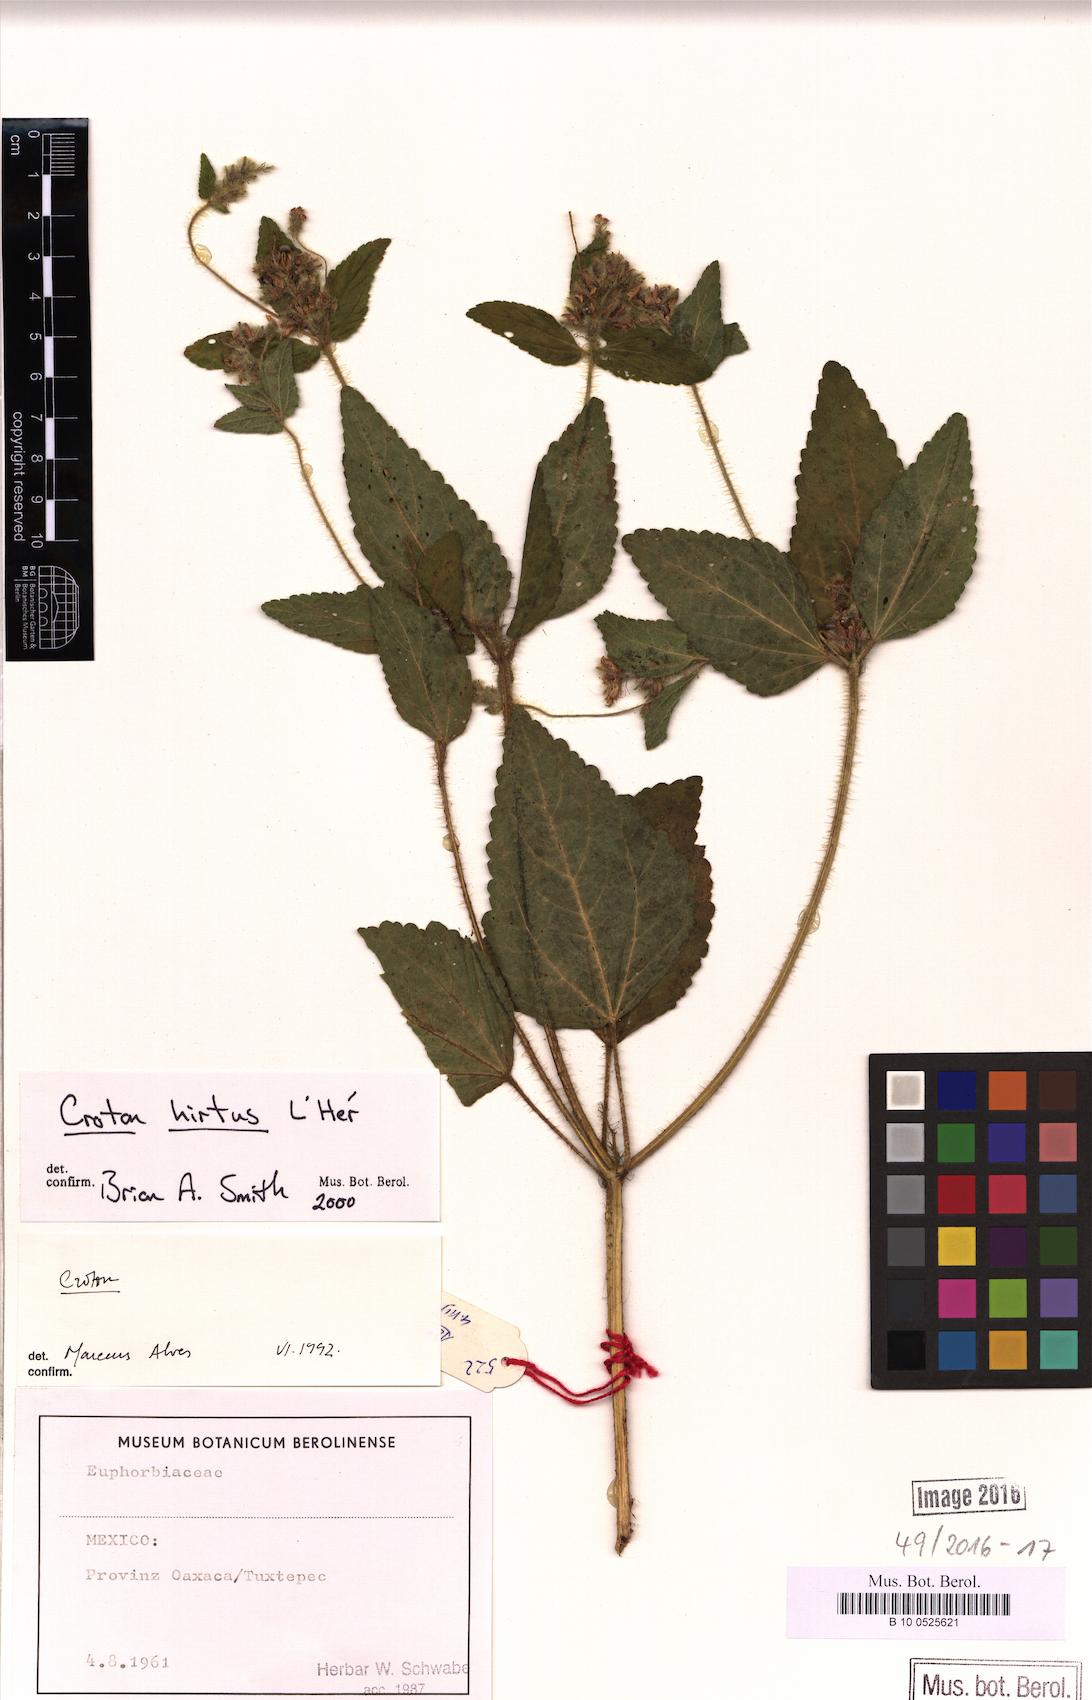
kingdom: Plantae
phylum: Tracheophyta
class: Magnoliopsida
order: Malpighiales
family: Euphorbiaceae
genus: Croton
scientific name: Croton hirtus
